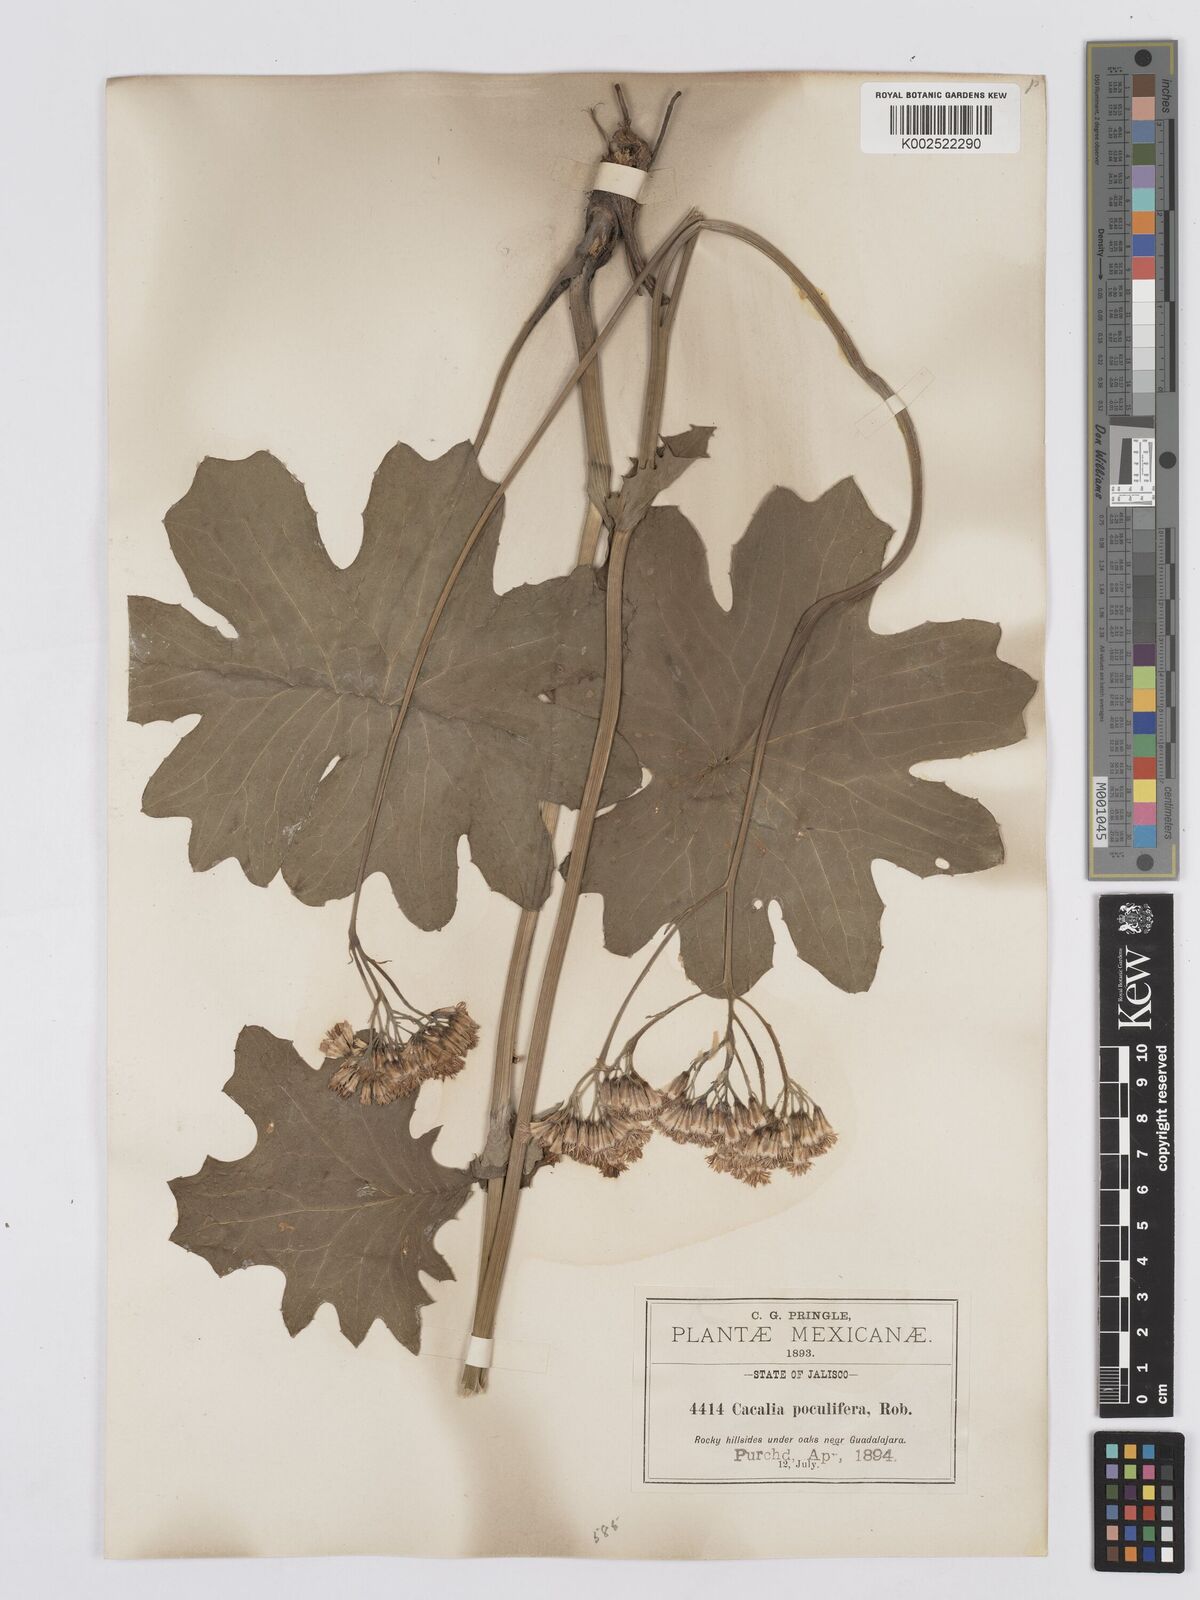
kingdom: Plantae
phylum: Tracheophyta
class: Magnoliopsida
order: Asterales
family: Asteraceae
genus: Psacalium
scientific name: Psacalium poculiferum
